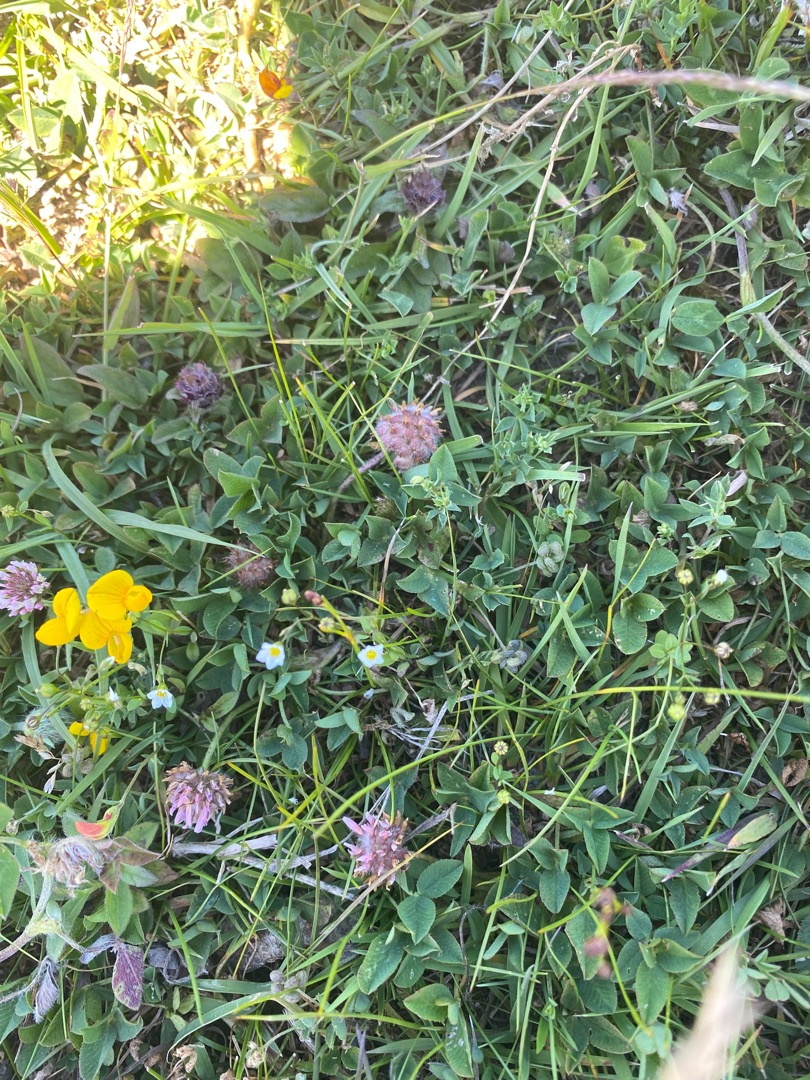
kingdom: Plantae
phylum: Tracheophyta
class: Magnoliopsida
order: Malpighiales
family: Linaceae
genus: Linum
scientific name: Linum catharticum
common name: Vild hør
